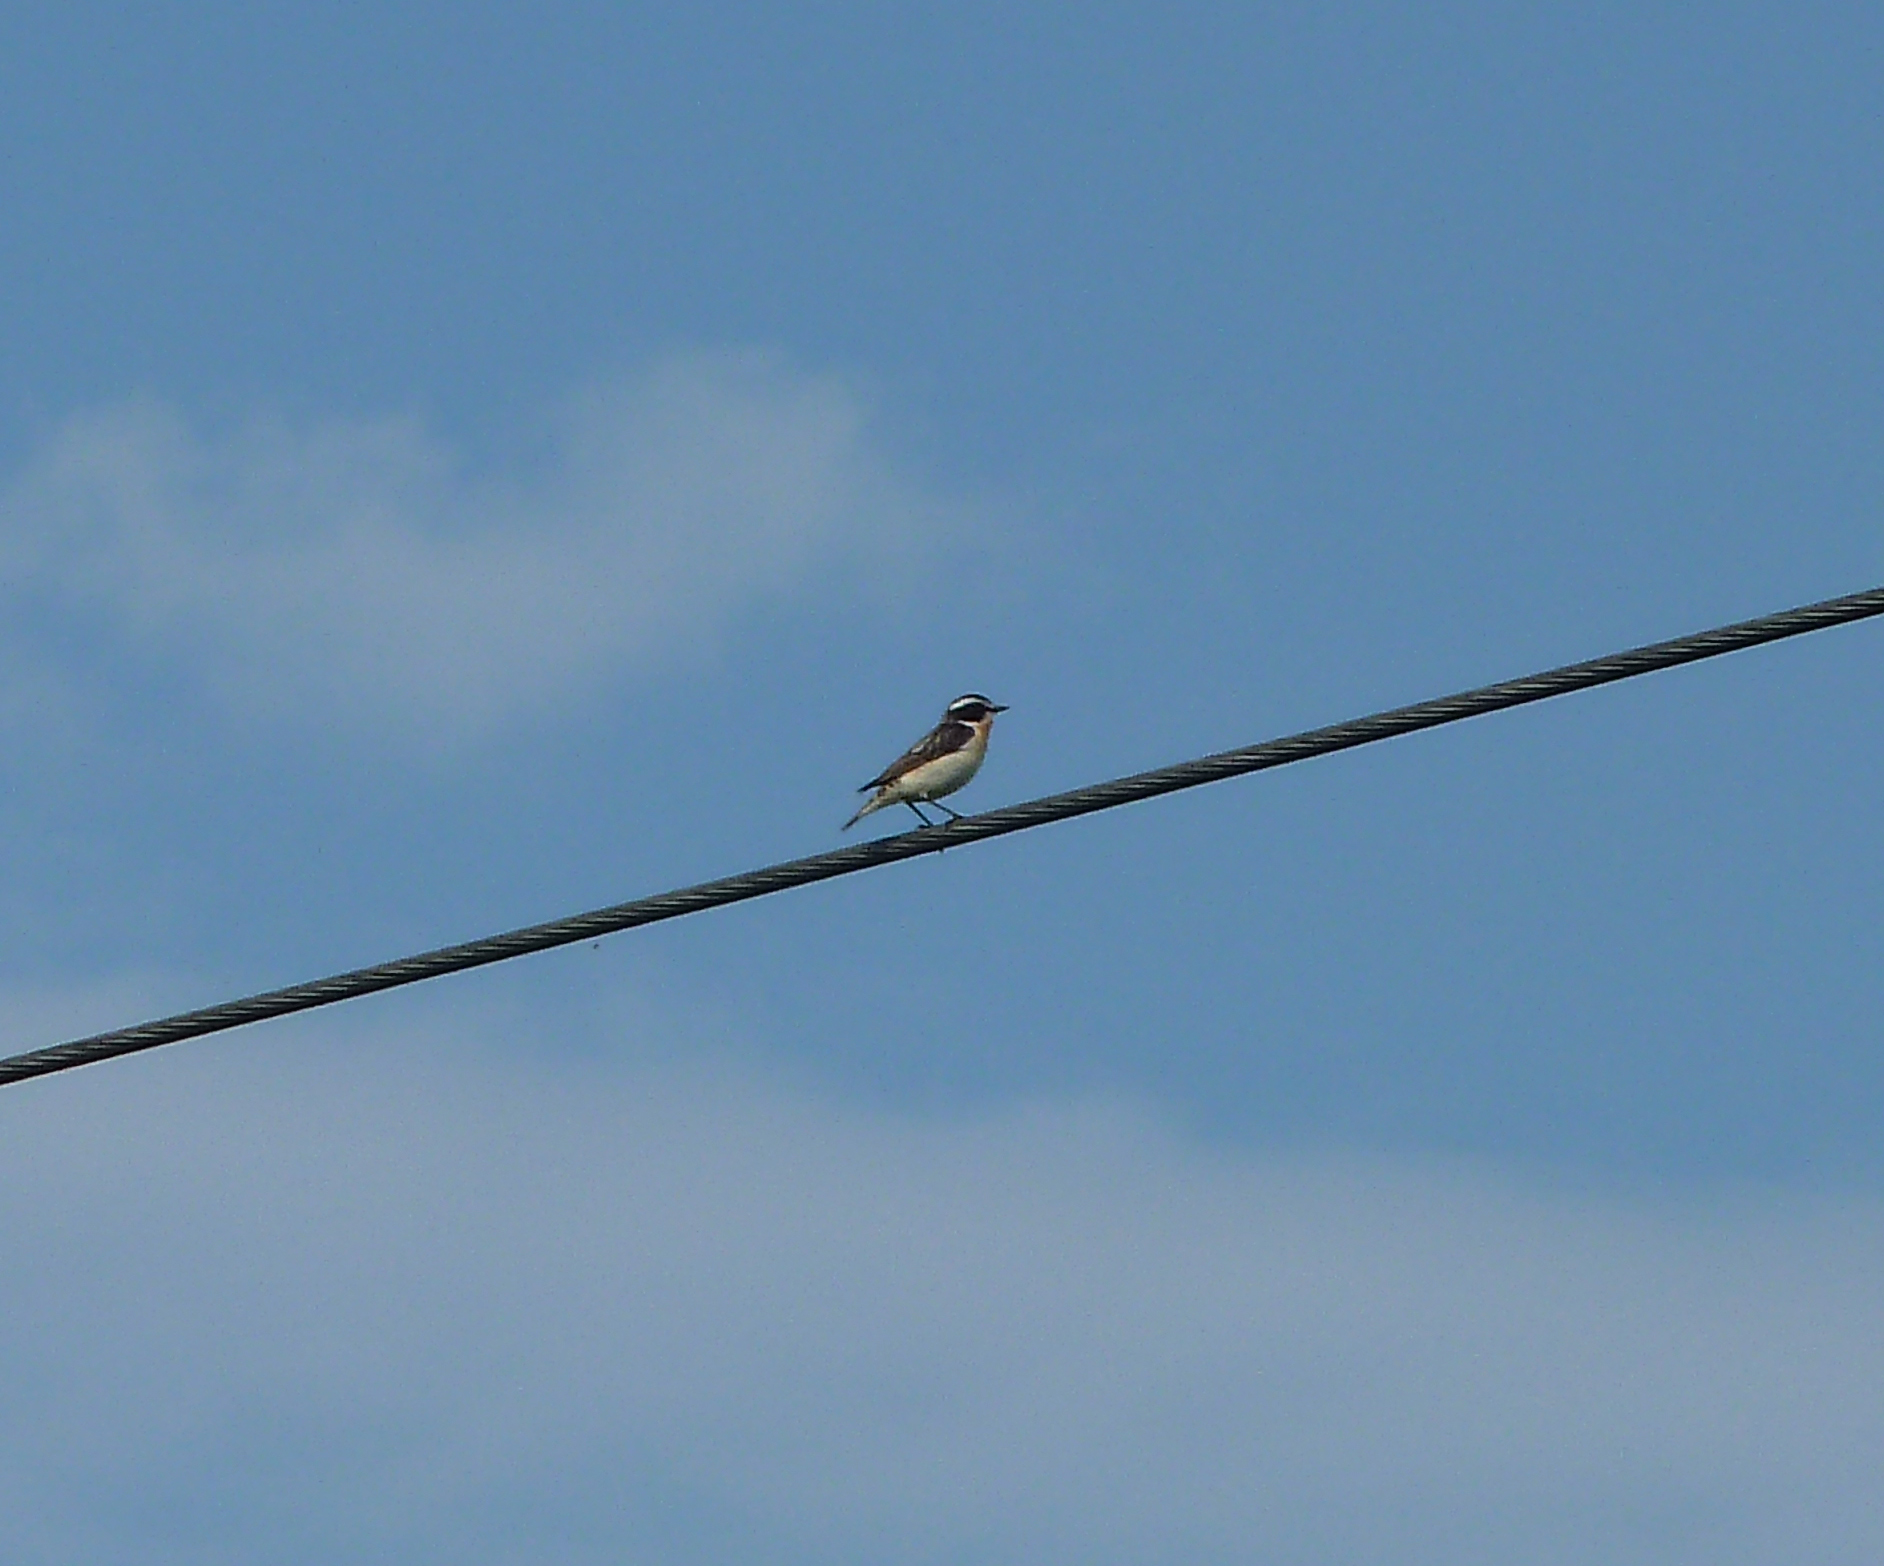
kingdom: Animalia
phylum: Chordata
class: Aves
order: Passeriformes
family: Muscicapidae
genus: Saxicola
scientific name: Saxicola rubetra
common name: Whinchat
